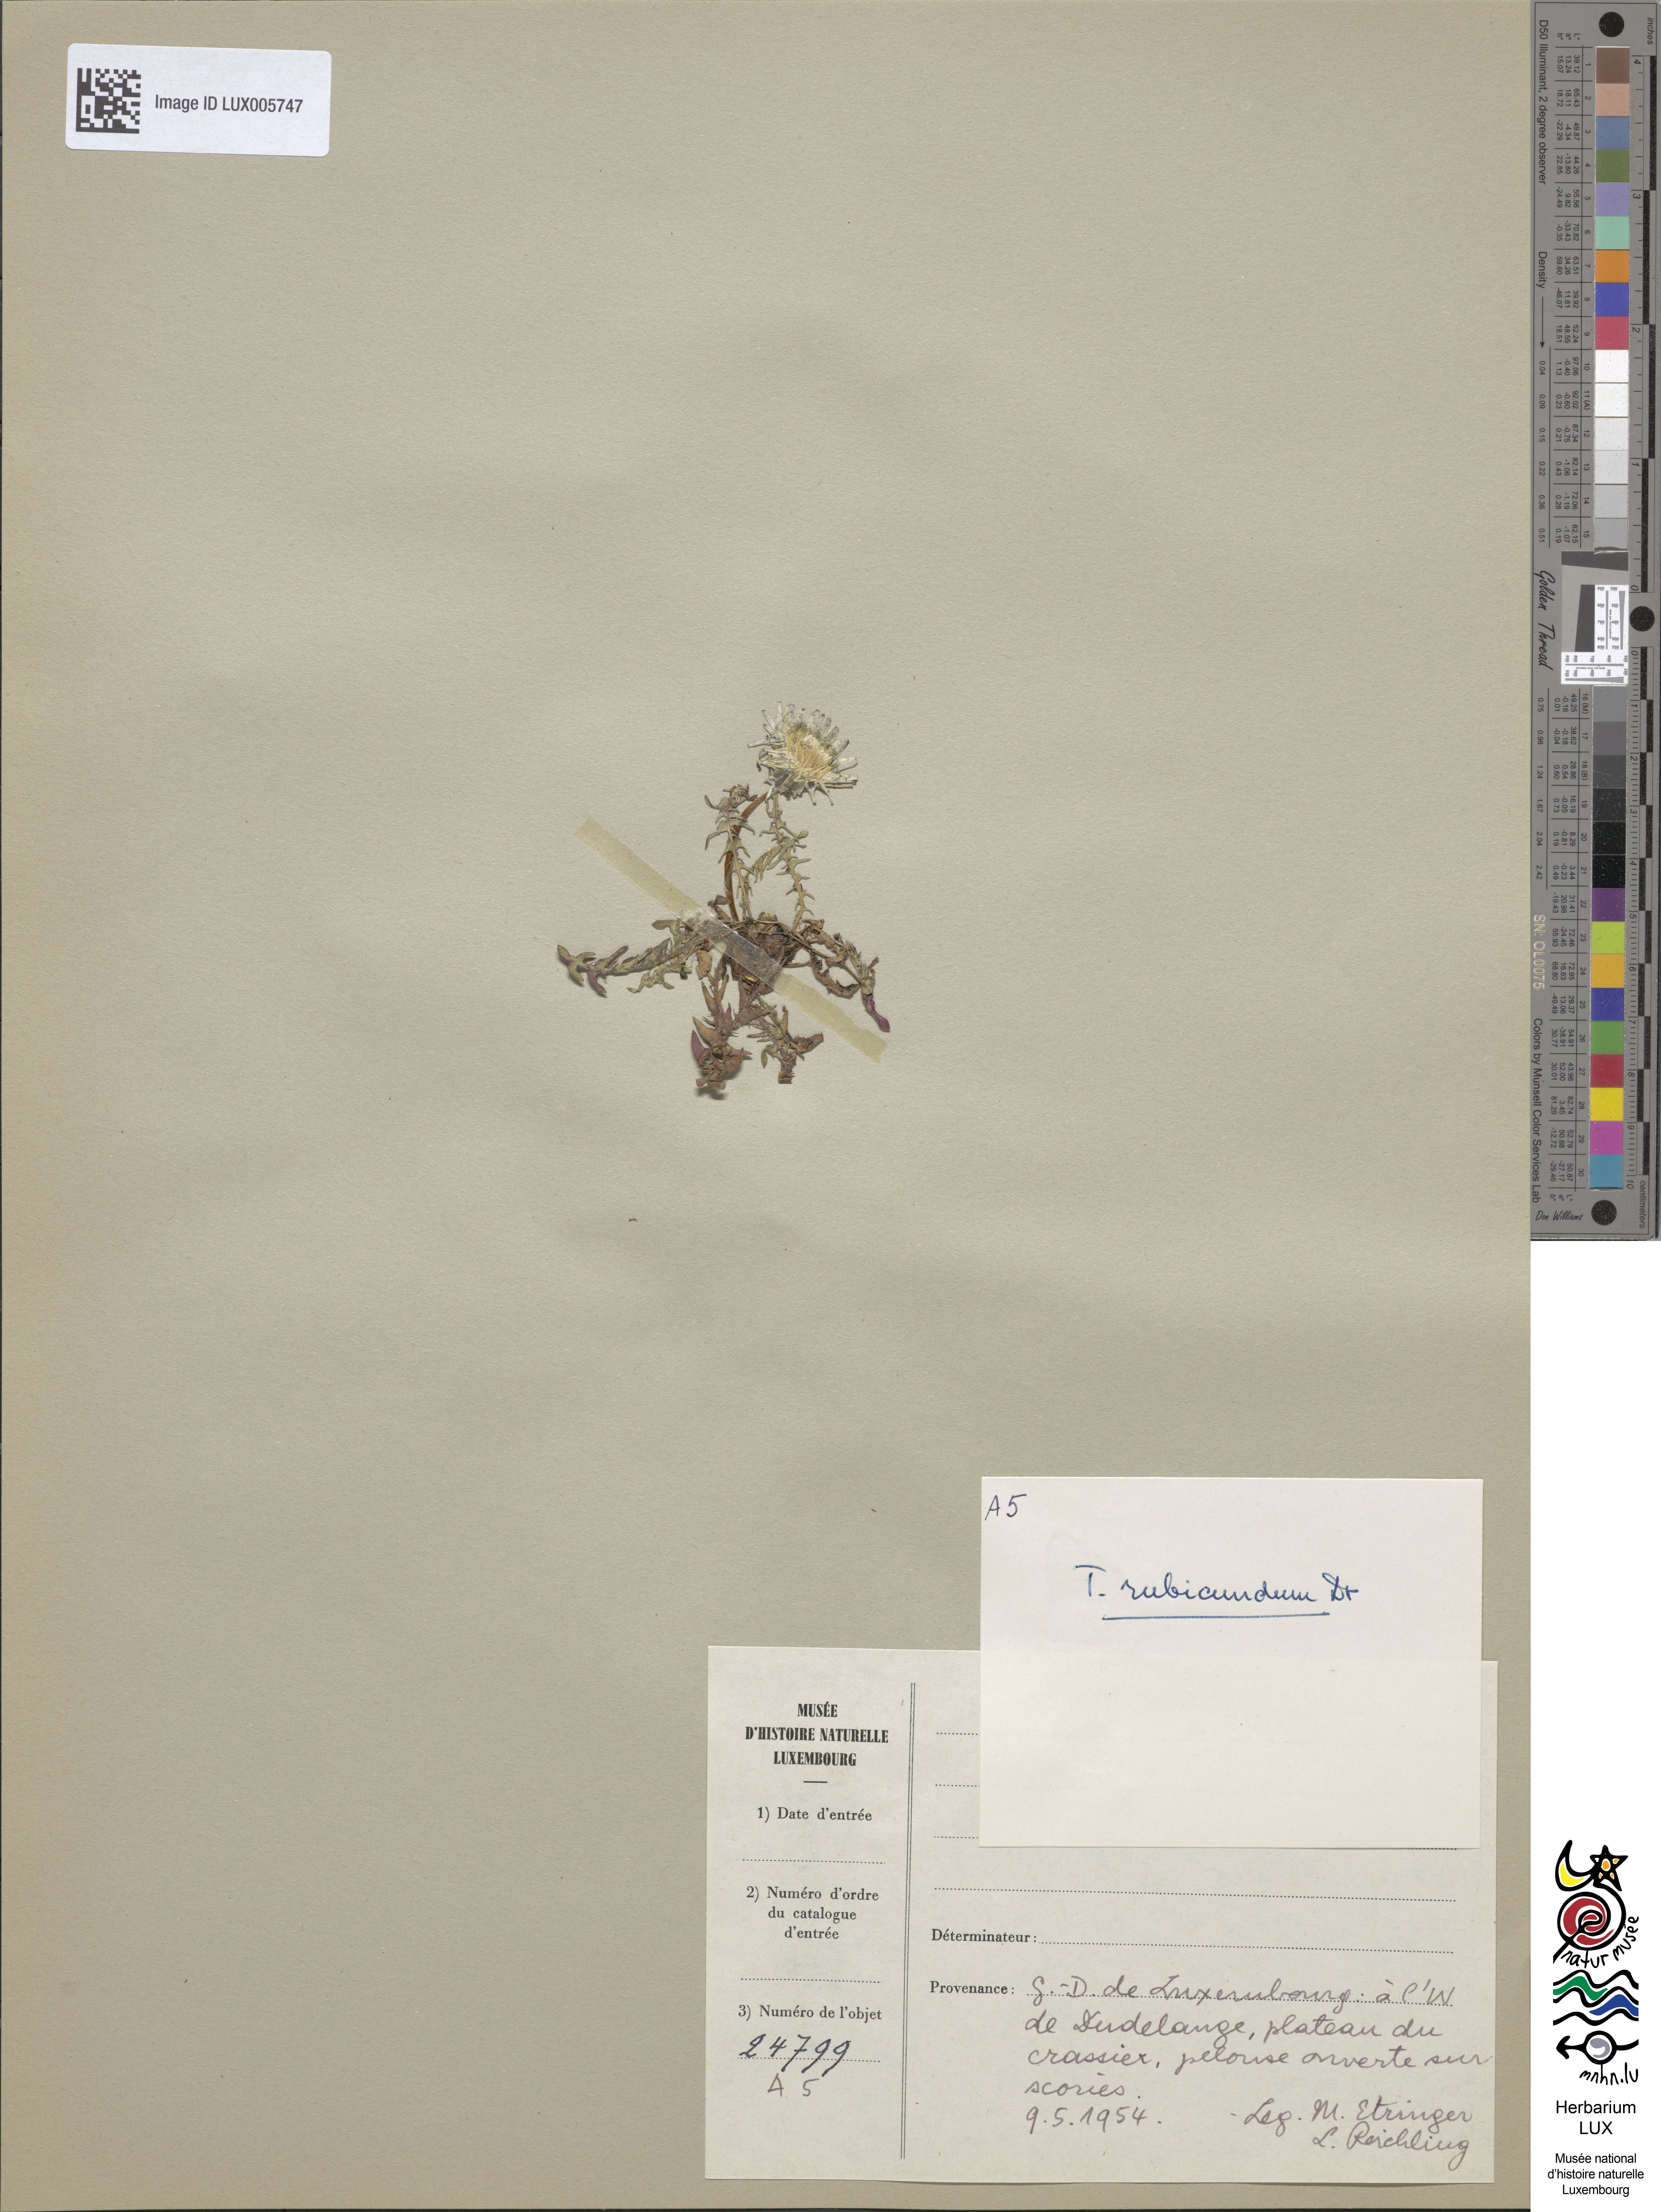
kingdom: Plantae
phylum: Tracheophyta
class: Magnoliopsida
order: Asterales
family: Asteraceae
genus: Taraxacum
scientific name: Taraxacum rubicundum
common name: Ruddy dandelion
